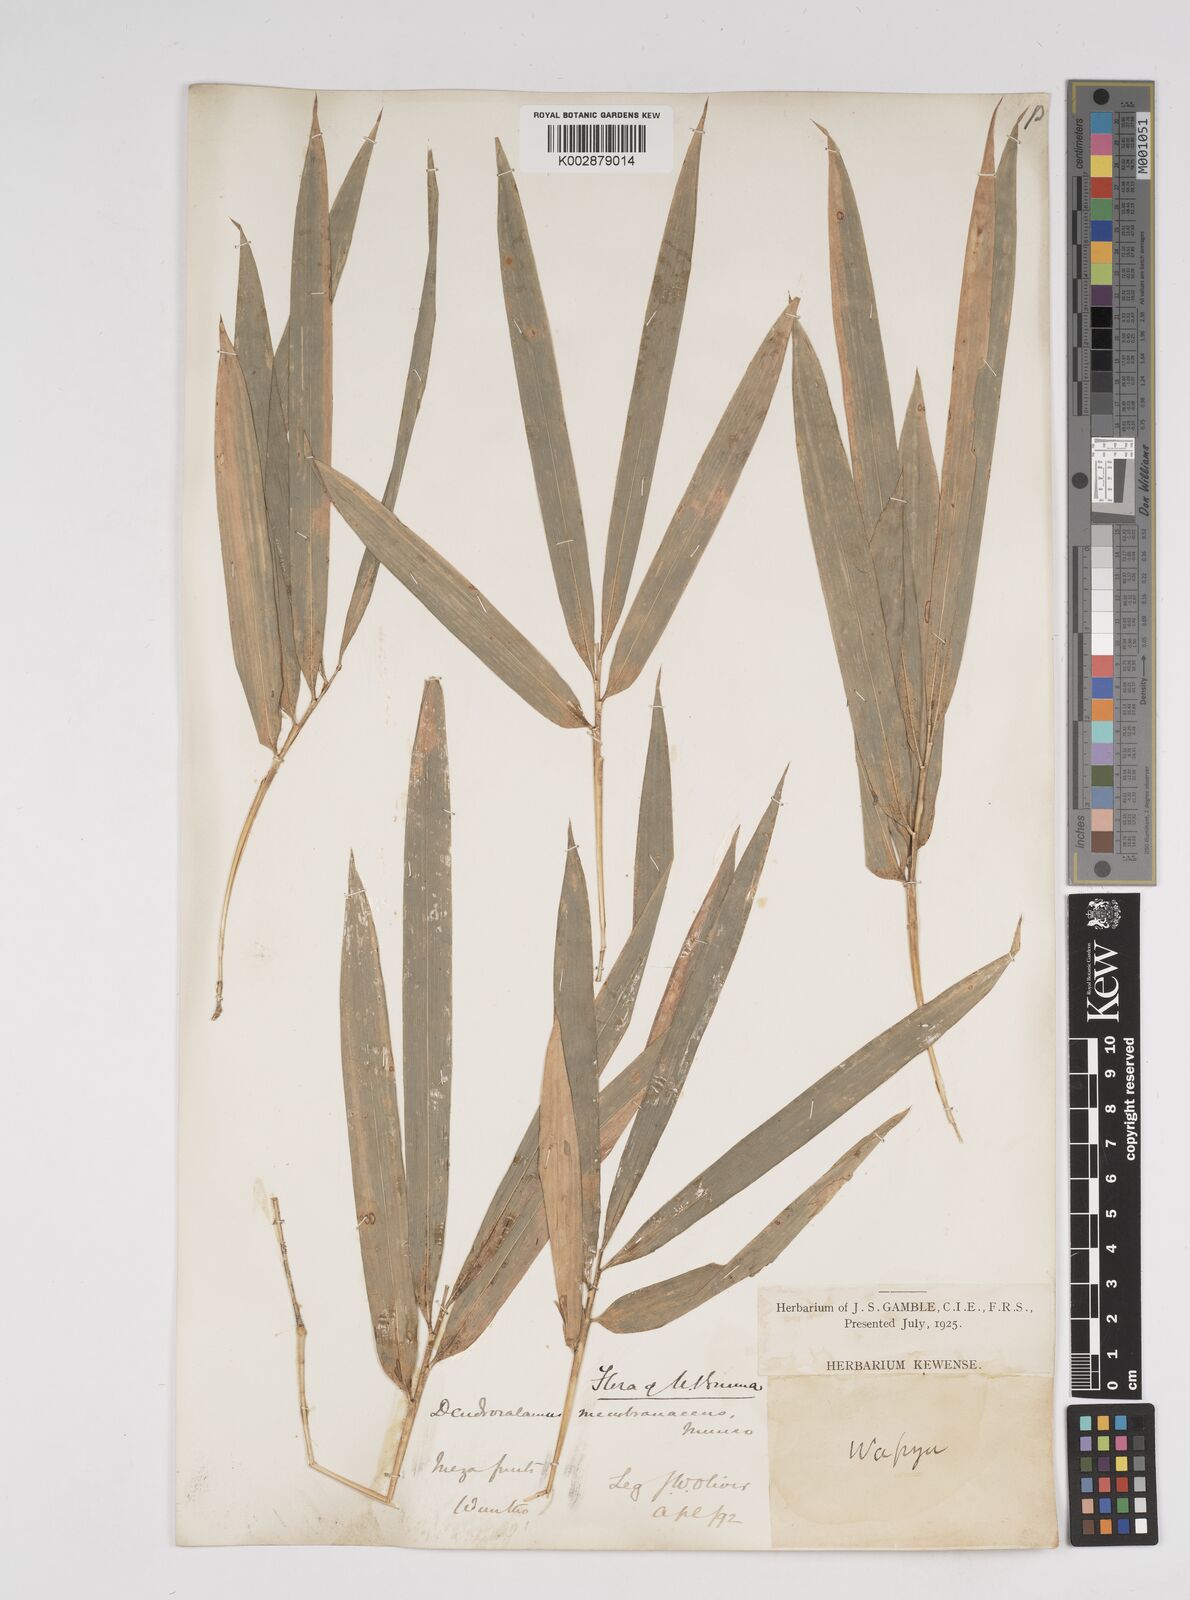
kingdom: Plantae
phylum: Tracheophyta
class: Liliopsida
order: Poales
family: Poaceae
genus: Dendrocalamus
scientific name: Dendrocalamus membranaceus
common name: White bamboo
